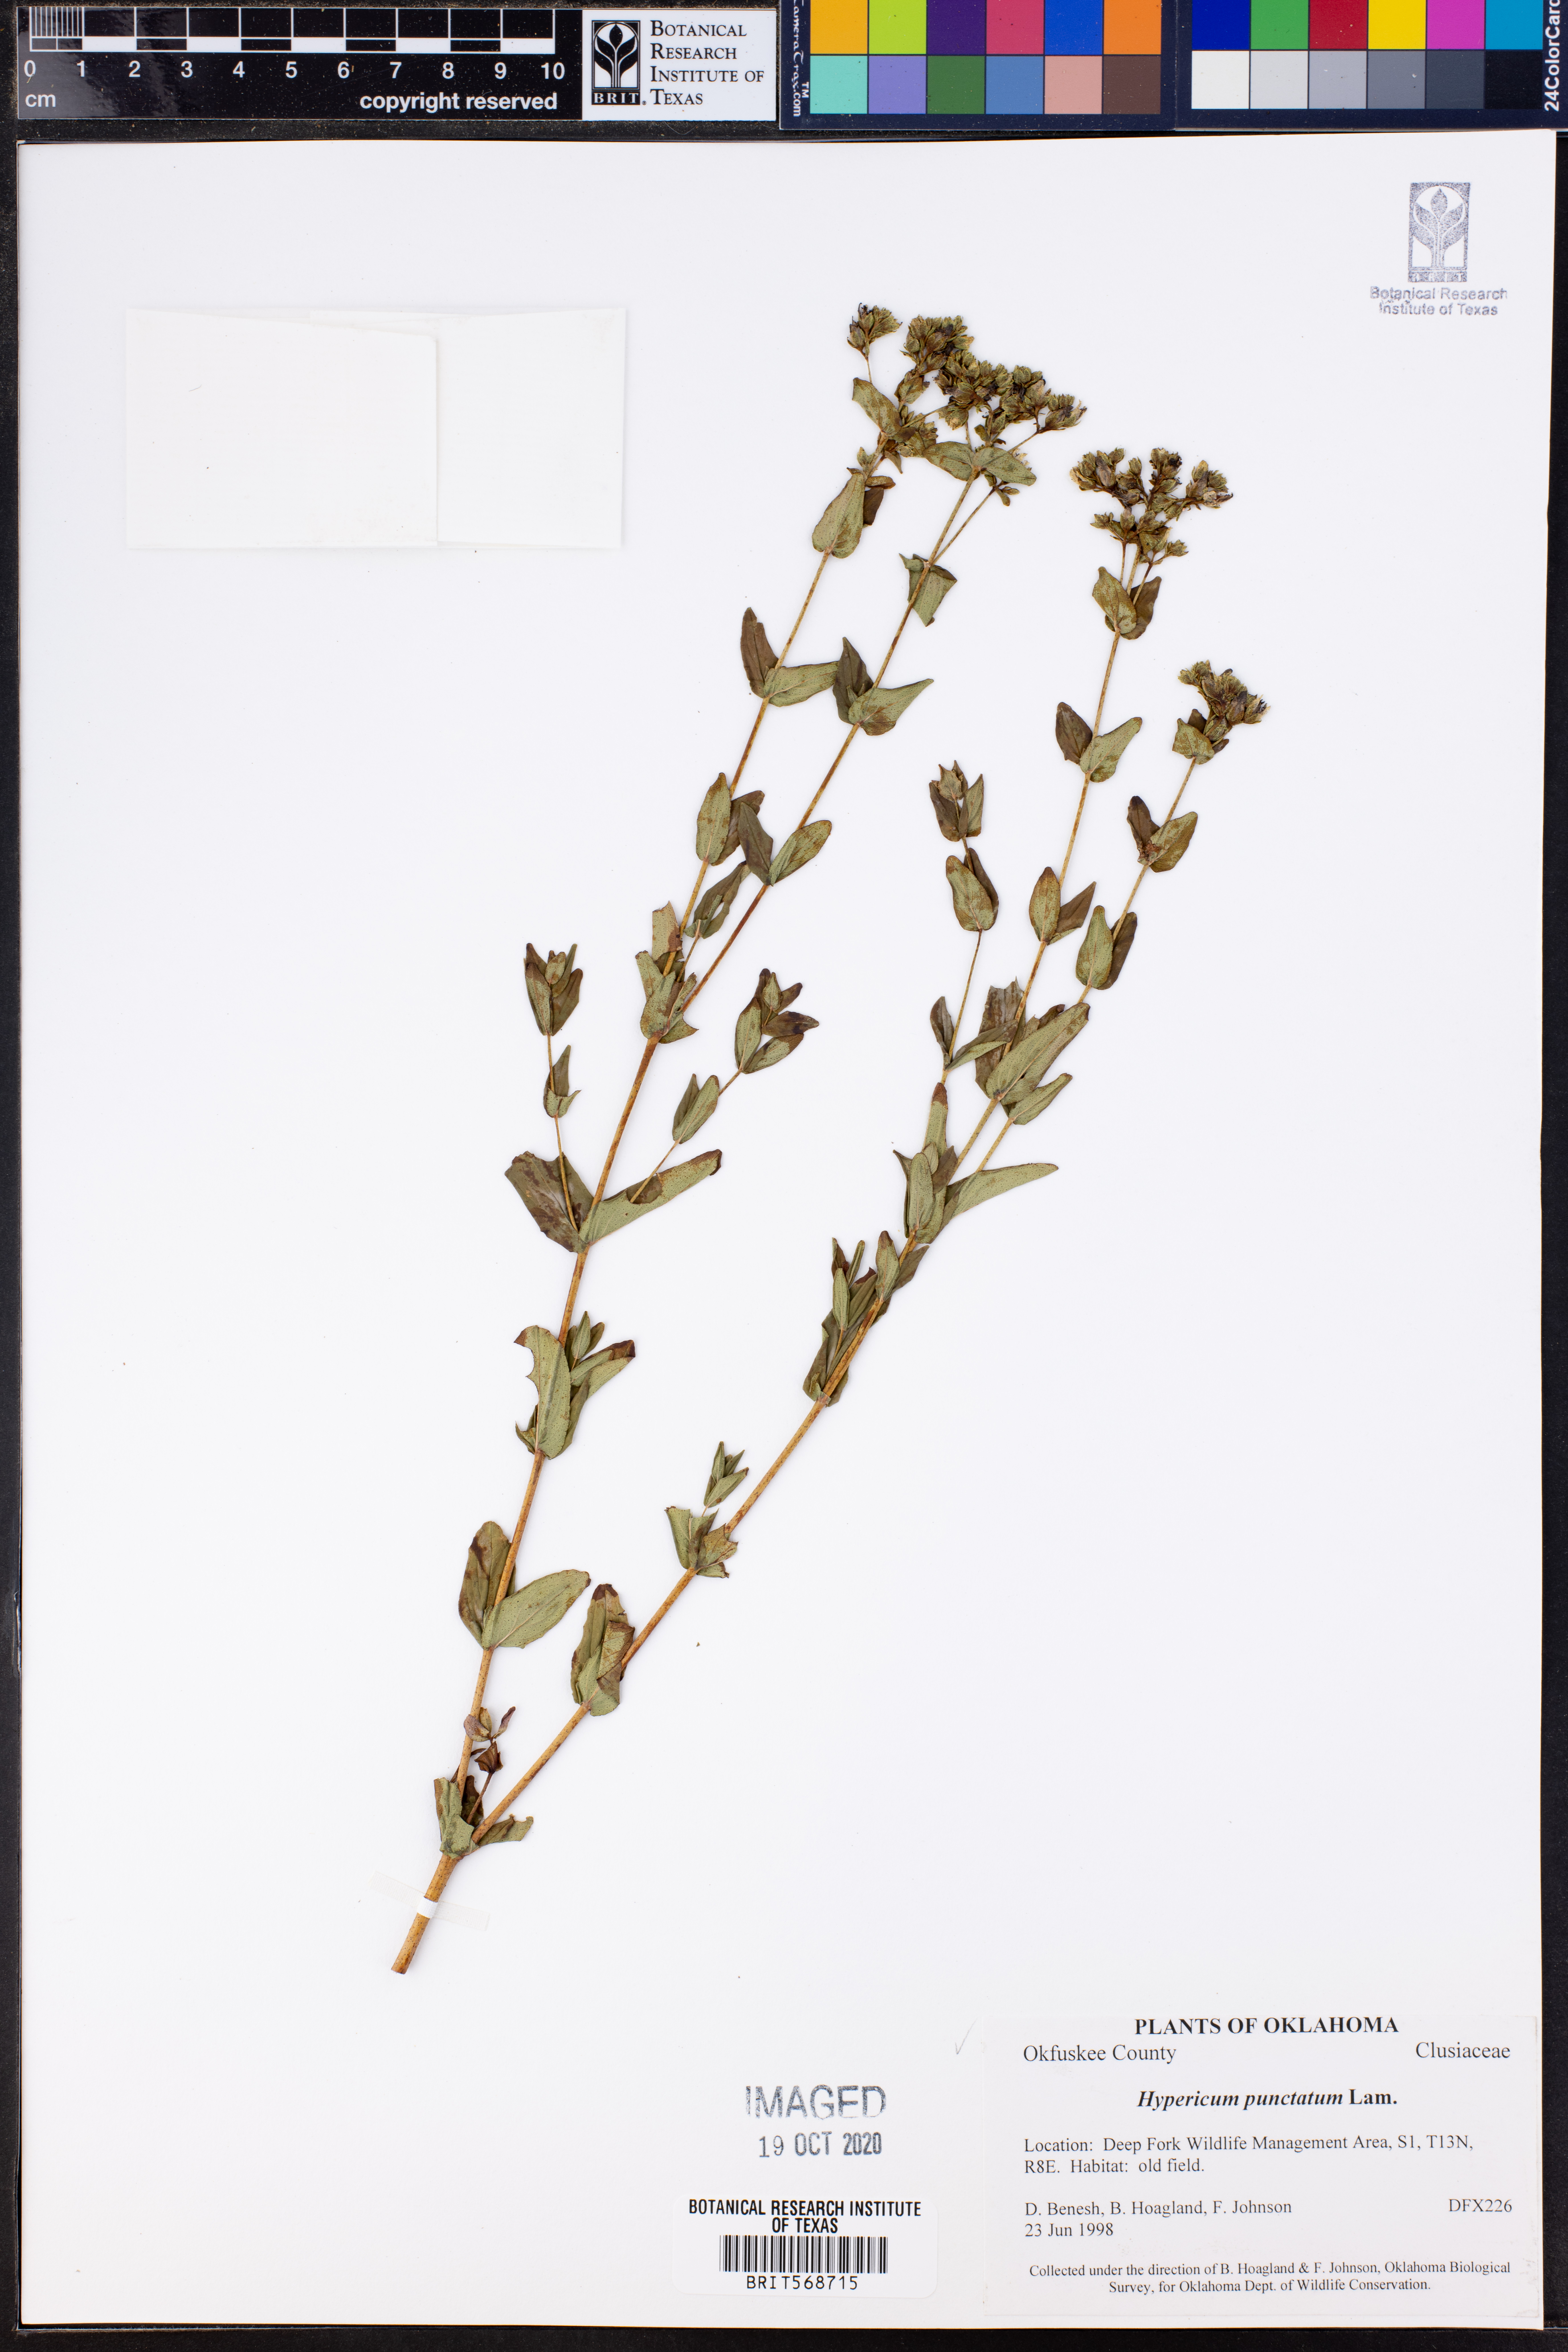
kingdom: Plantae
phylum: Tracheophyta
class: Magnoliopsida
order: Malpighiales
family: Hypericaceae
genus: Hypericum
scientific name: Hypericum punctatum
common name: Spotted st. john's-wort
